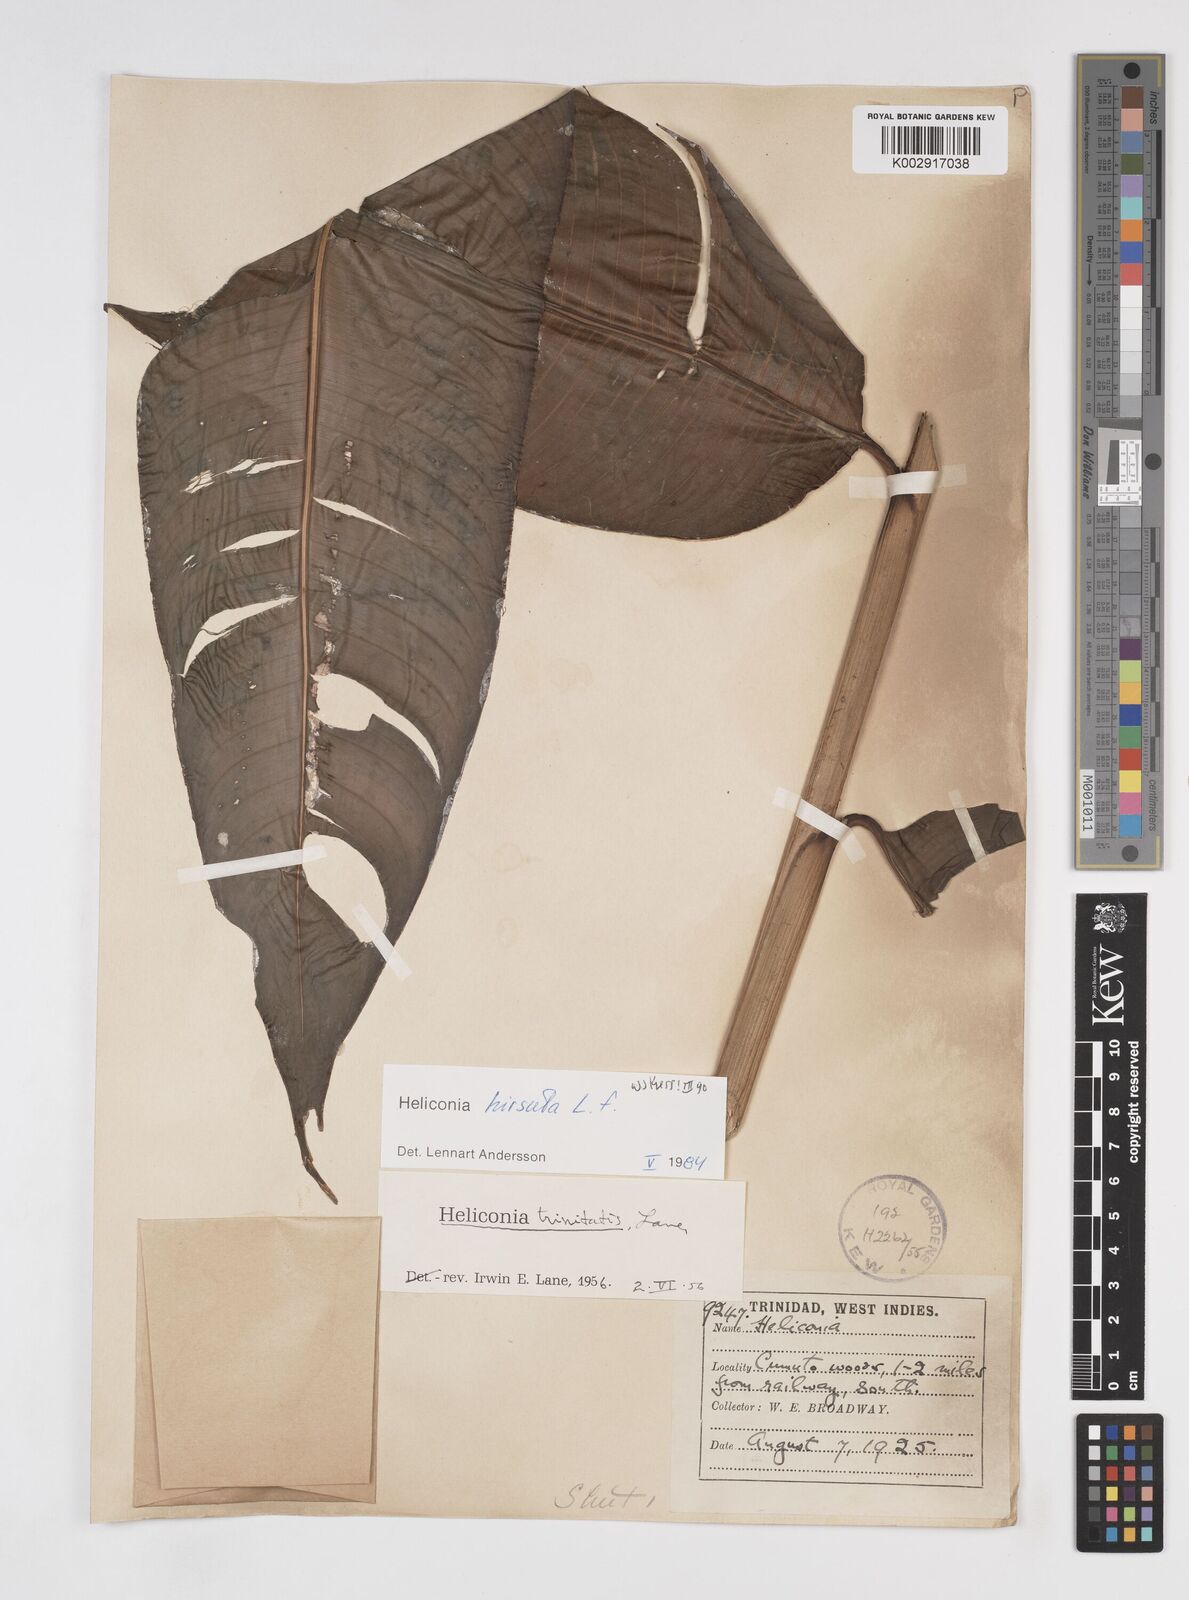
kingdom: Plantae
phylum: Tracheophyta
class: Liliopsida
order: Zingiberales
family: Heliconiaceae
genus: Heliconia
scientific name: Heliconia hirsuta
